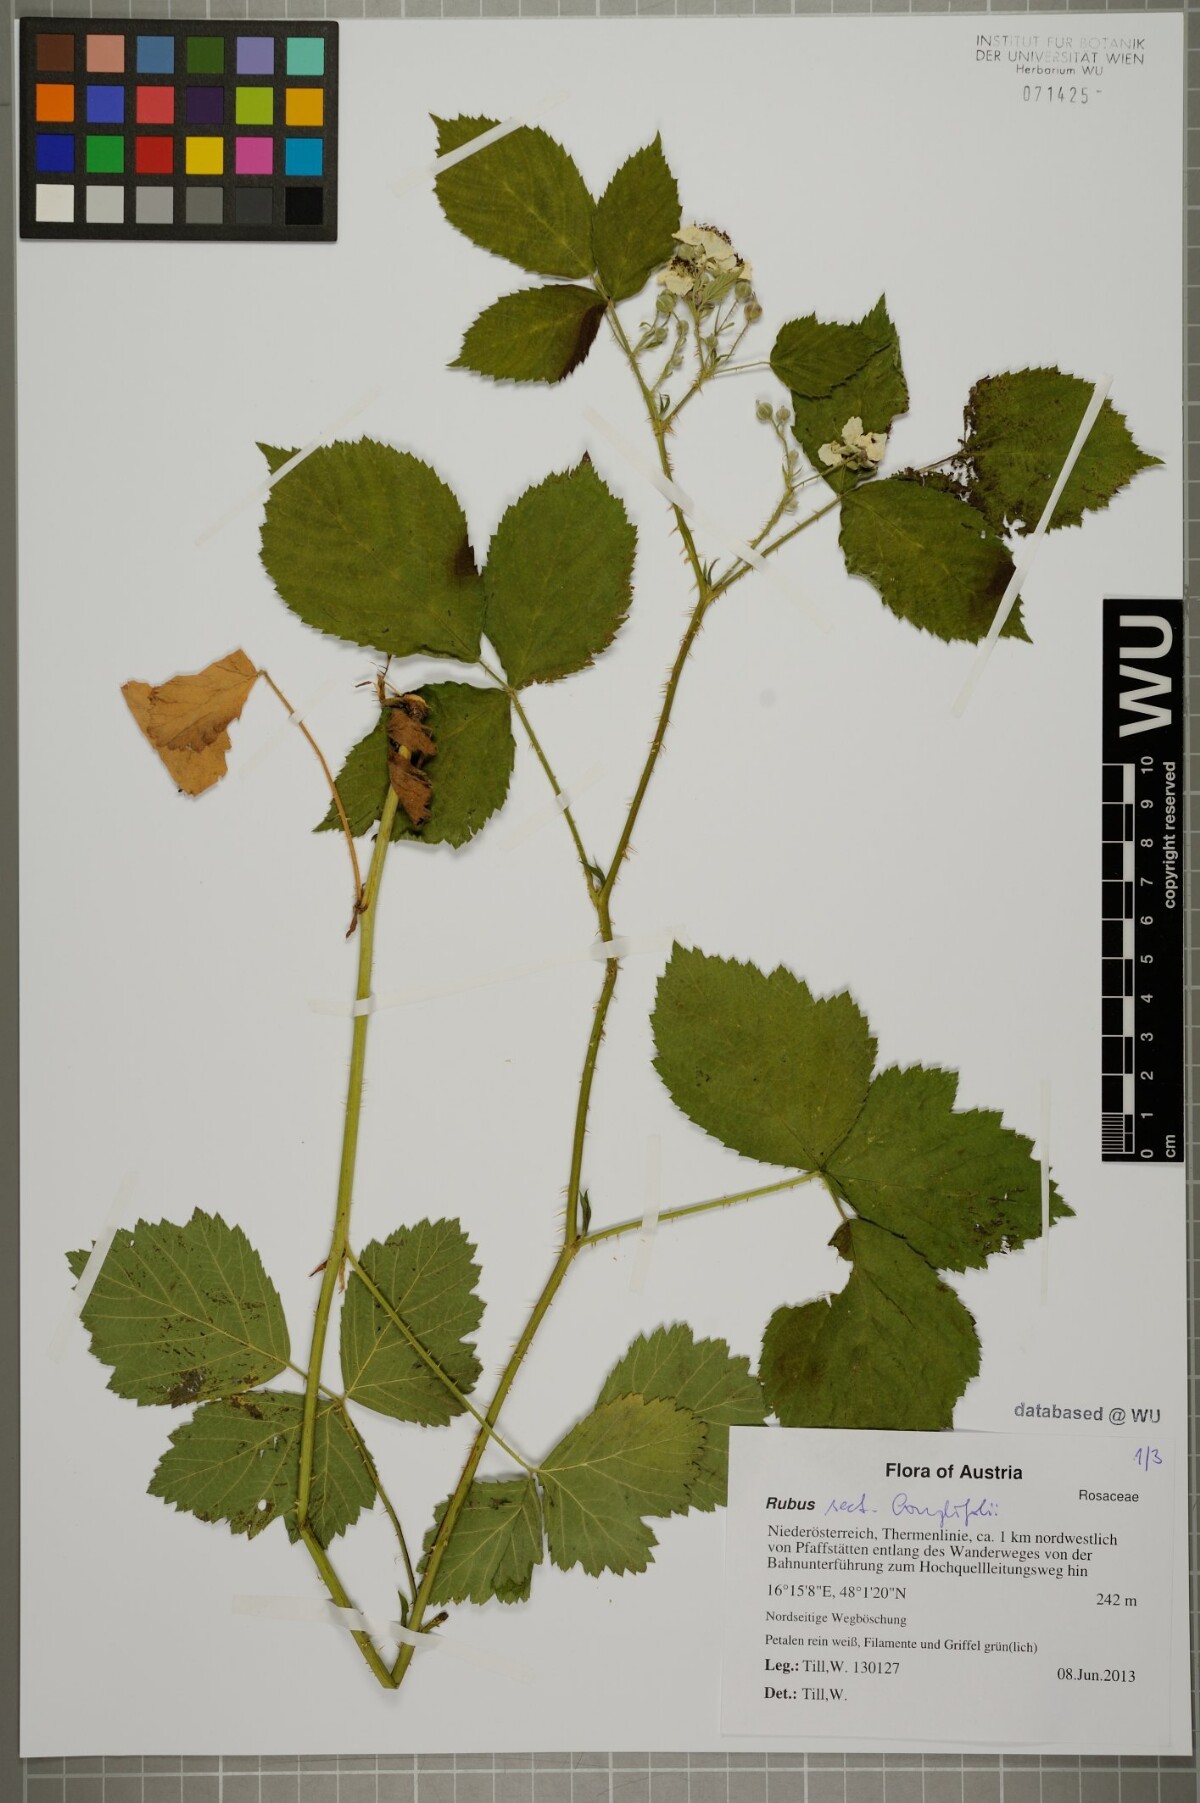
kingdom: Plantae
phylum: Tracheophyta
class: Magnoliopsida
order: Rosales
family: Rosaceae
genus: Rubus
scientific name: Rubus
